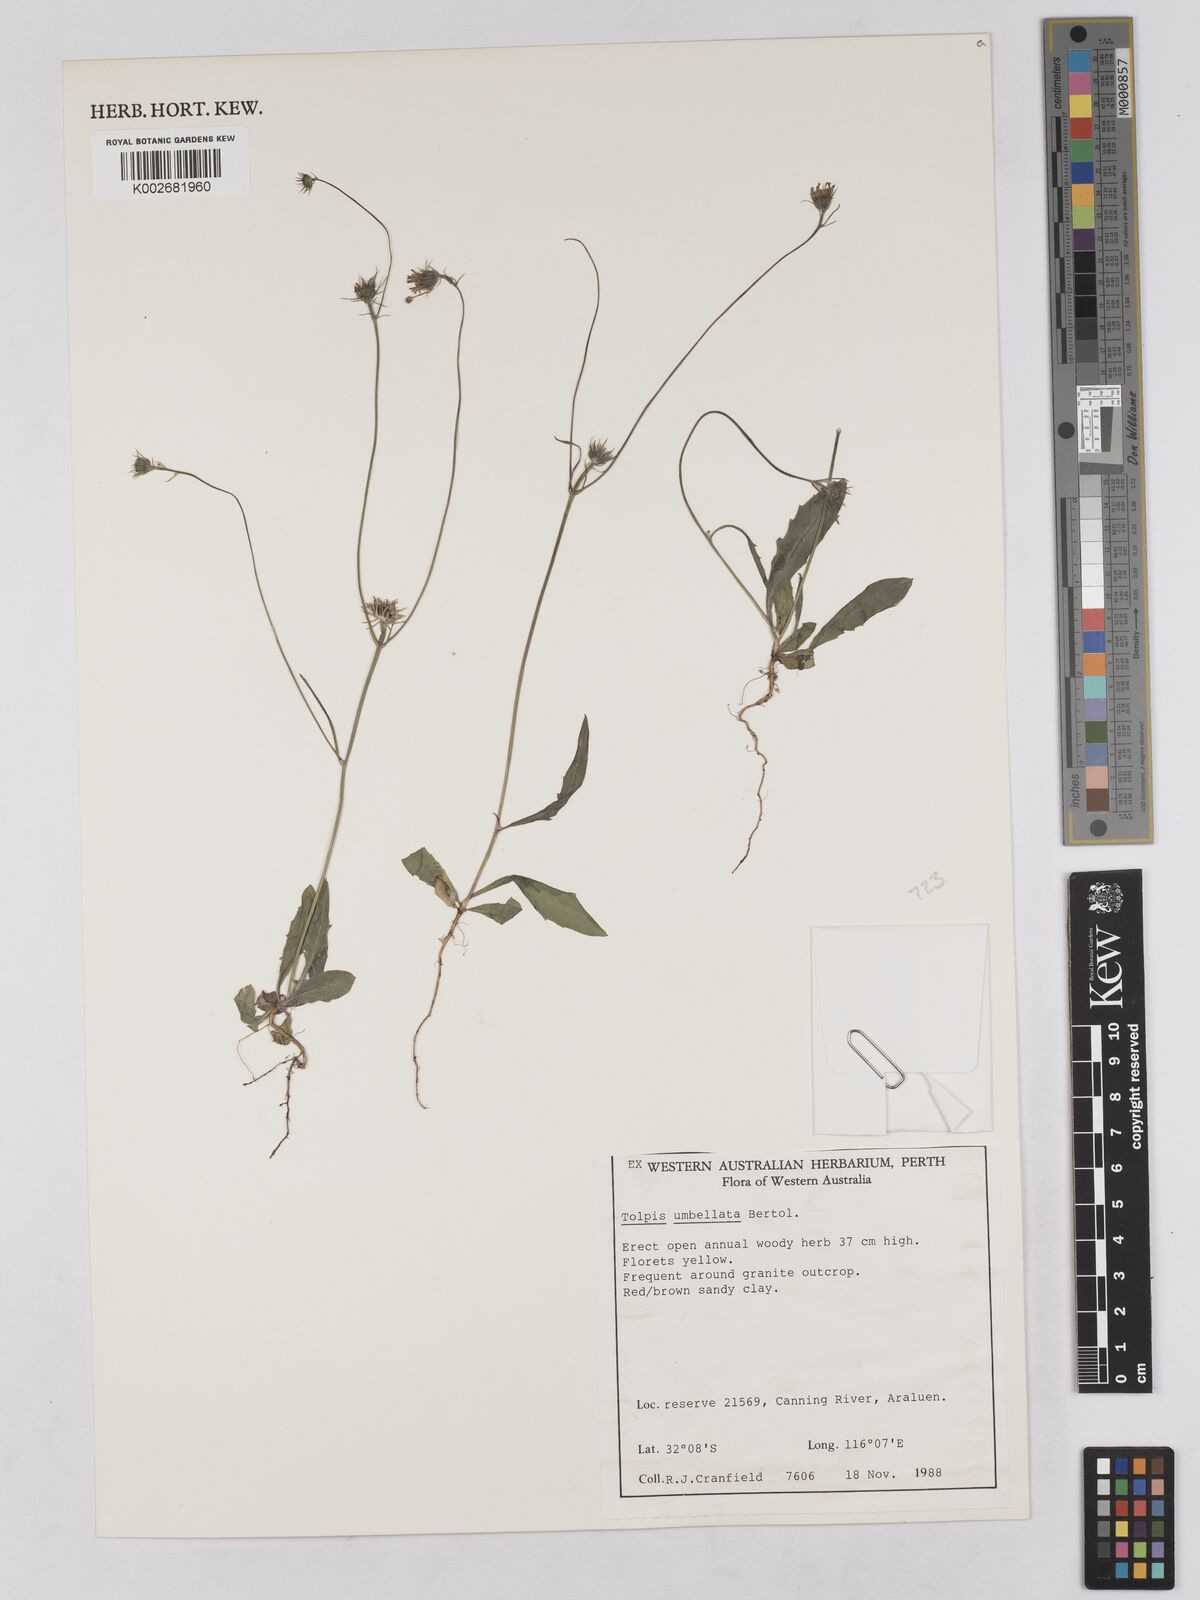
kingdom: Plantae
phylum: Tracheophyta
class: Magnoliopsida
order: Asterales
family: Asteraceae
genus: Tolpis
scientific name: Tolpis umbellata
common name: Yellow hawkweed
